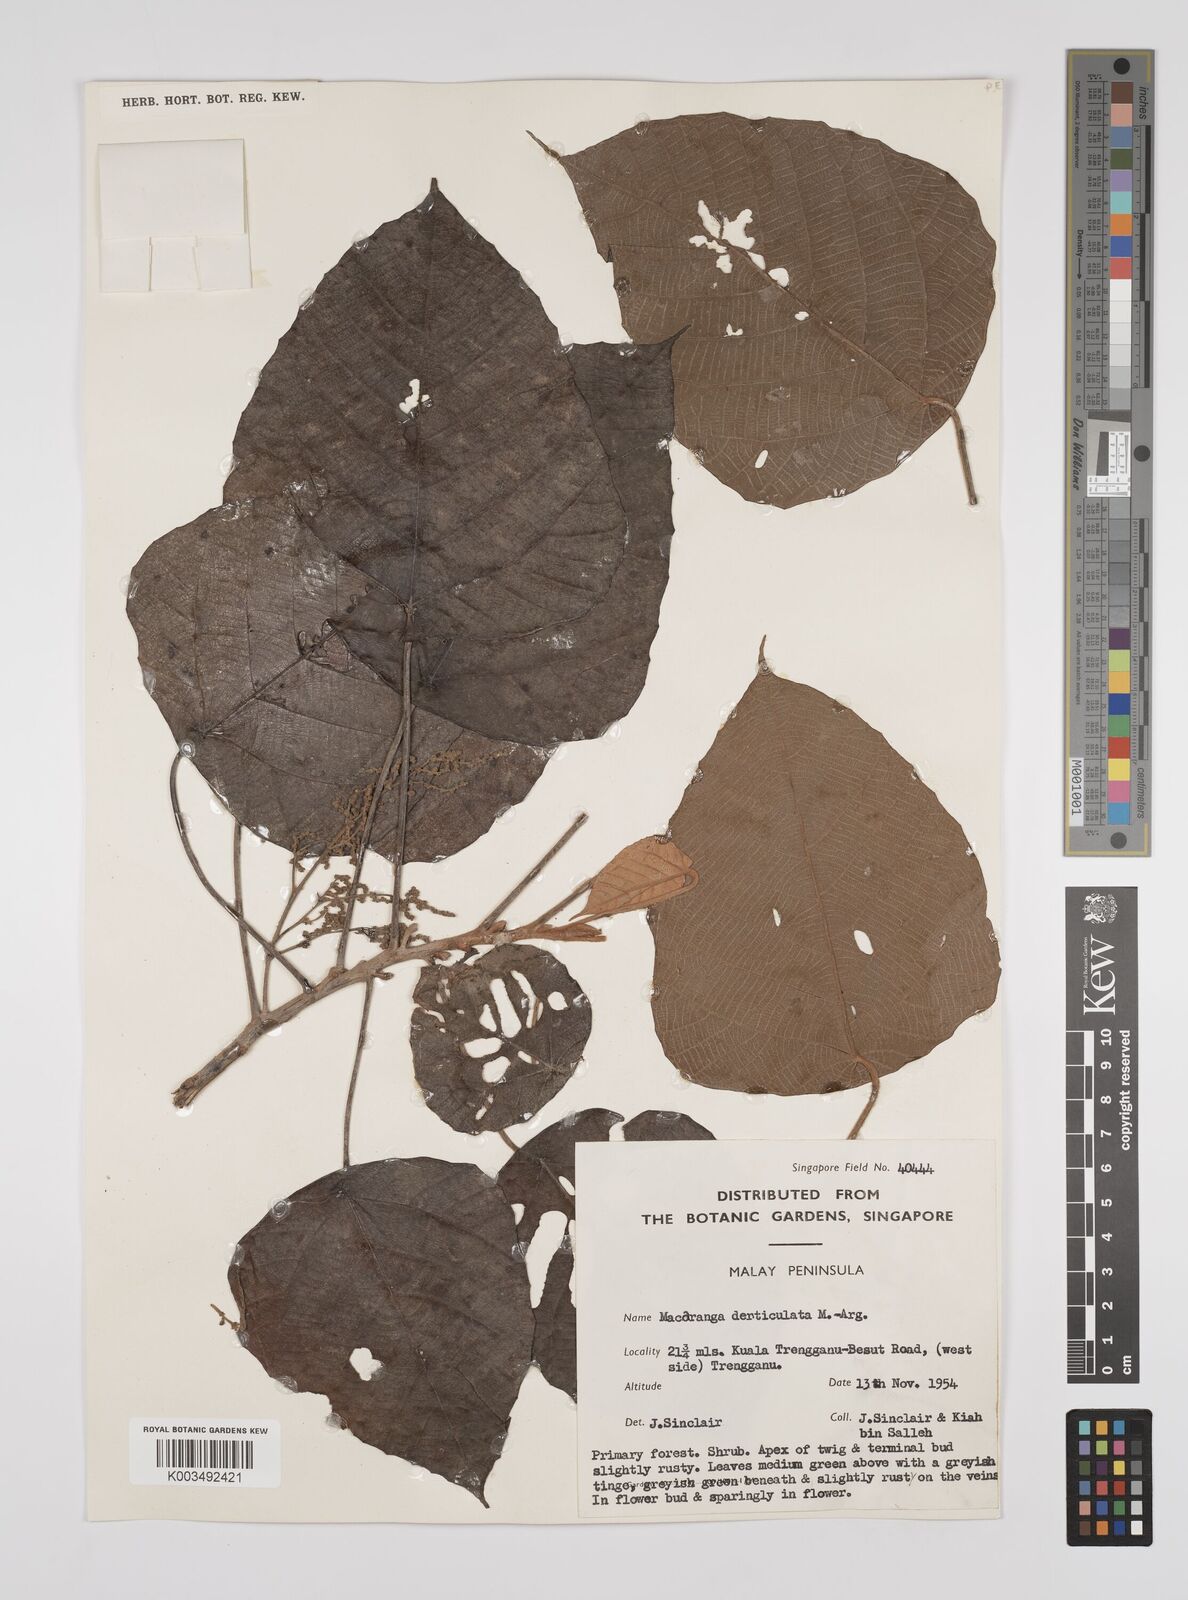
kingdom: Plantae
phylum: Tracheophyta
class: Magnoliopsida
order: Malpighiales
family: Euphorbiaceae
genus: Macaranga
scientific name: Macaranga denticulata
